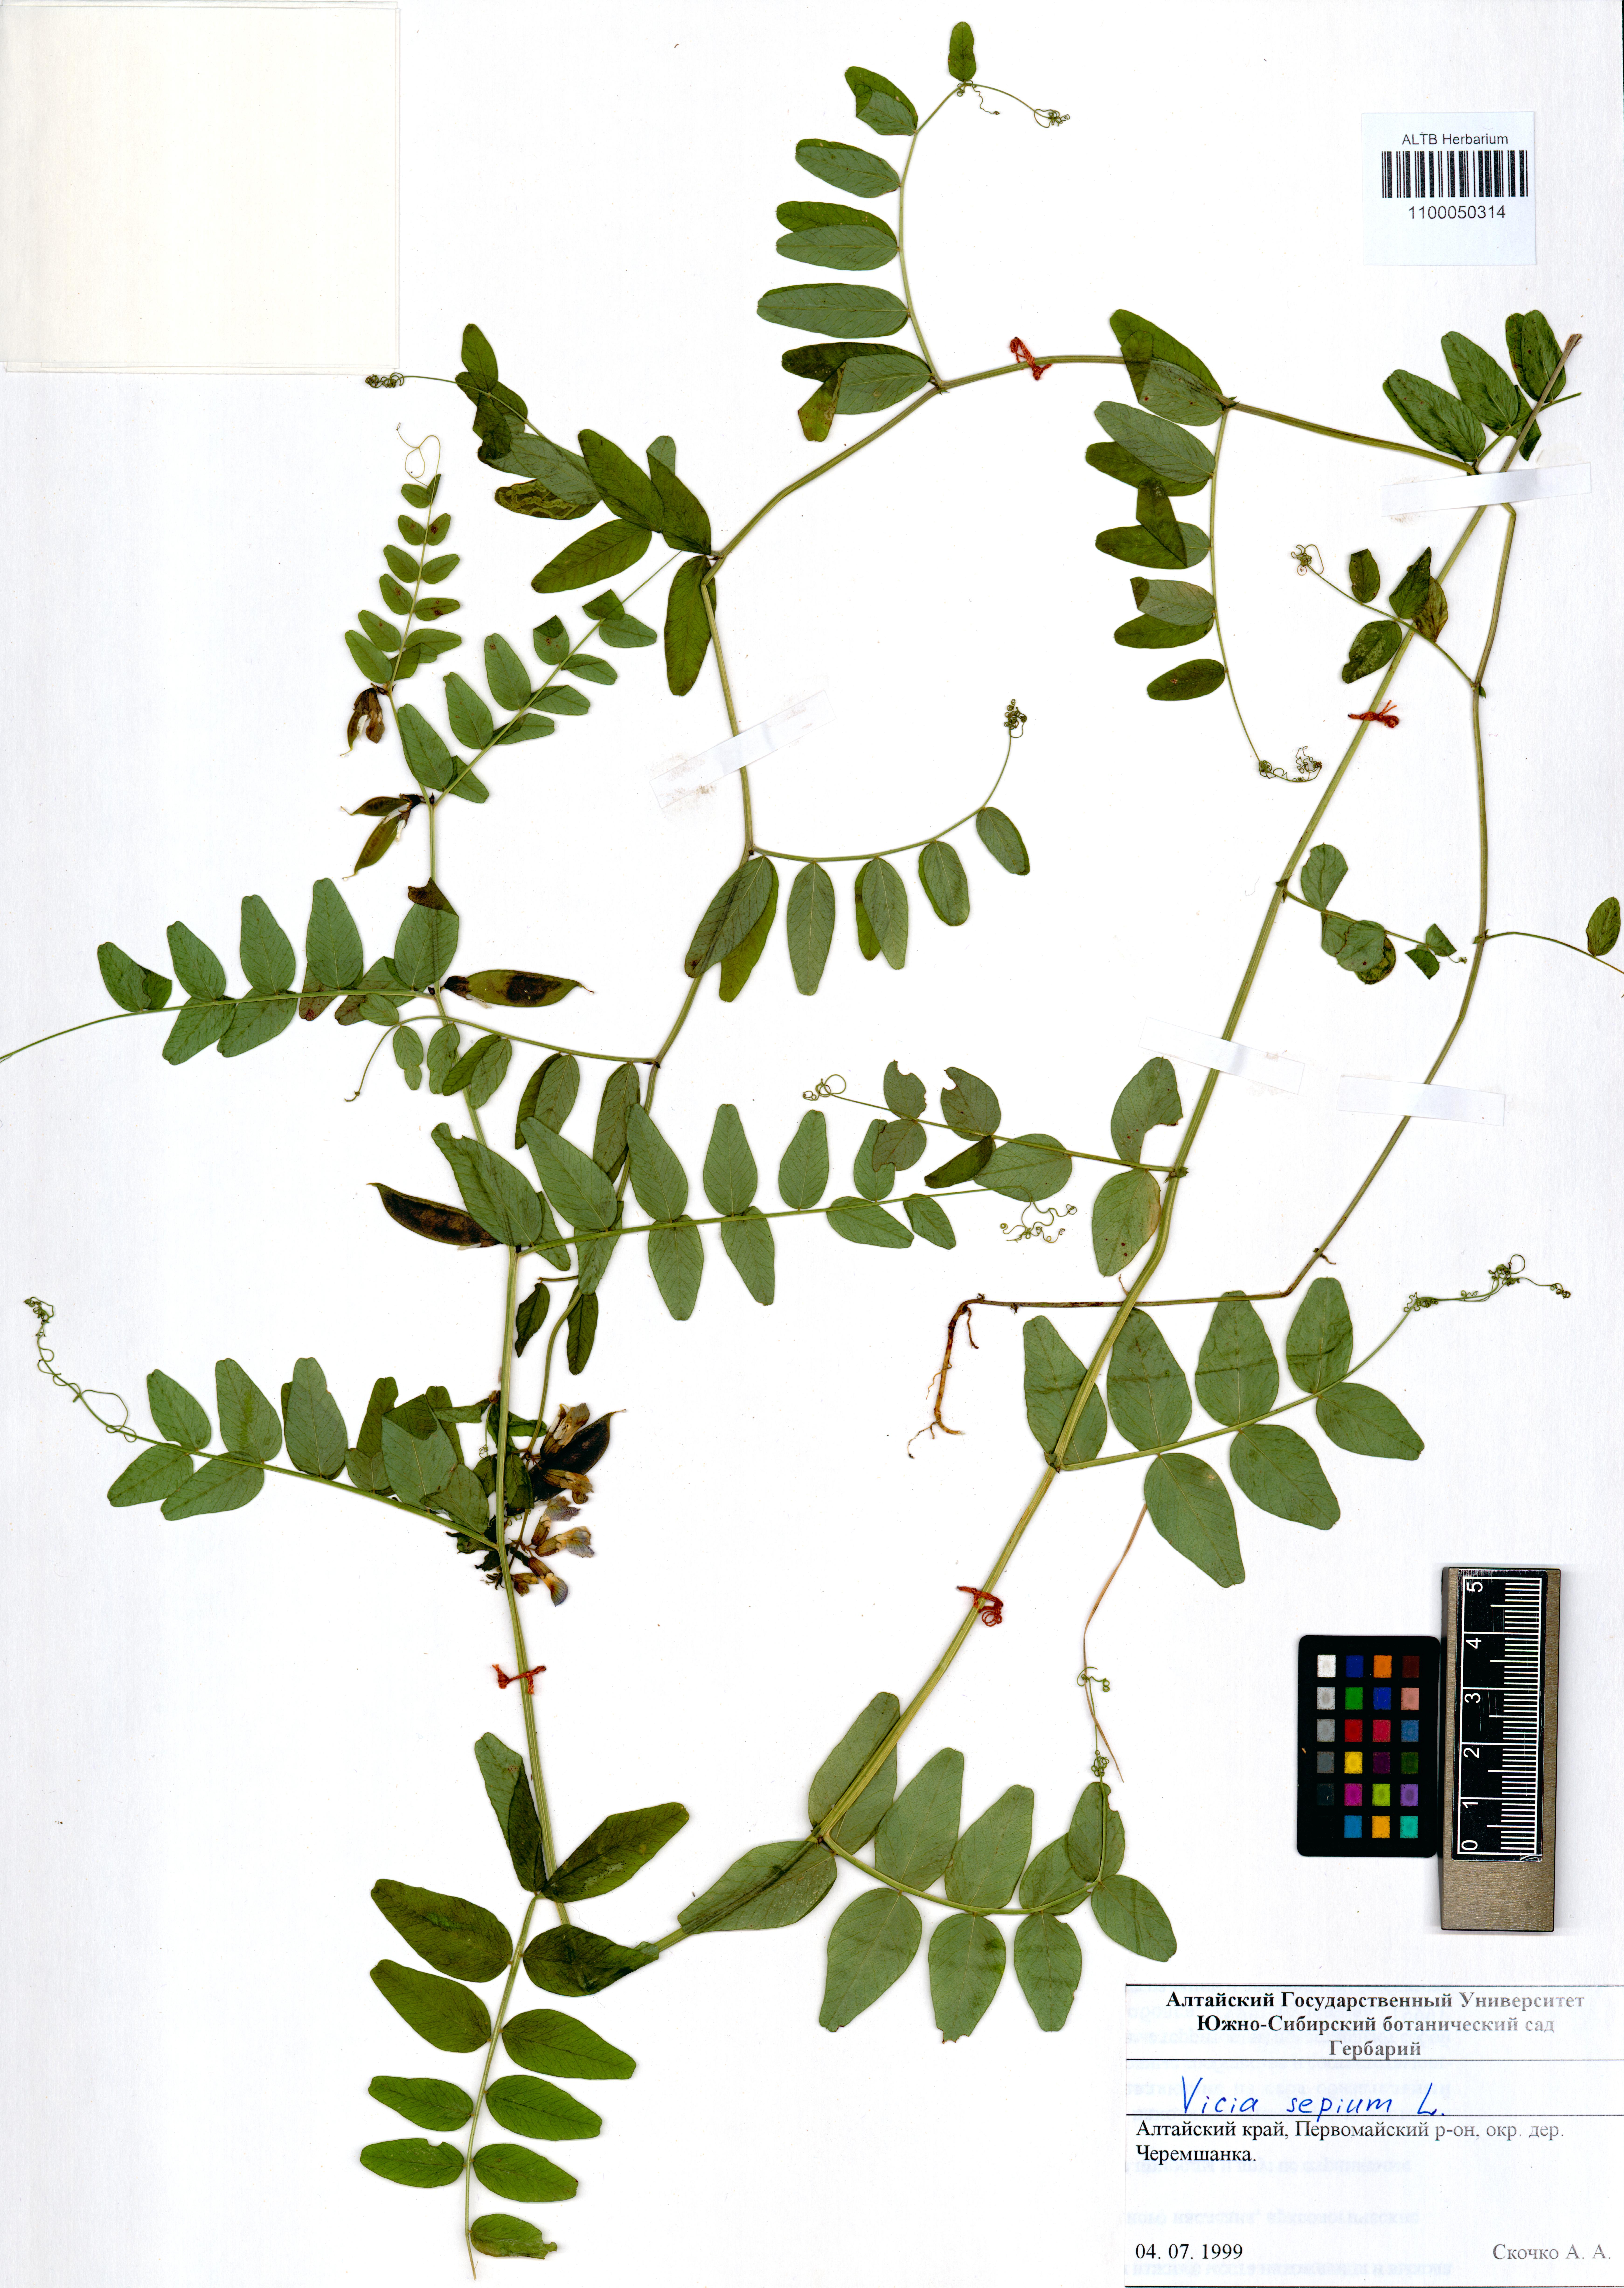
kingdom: Plantae
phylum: Tracheophyta
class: Magnoliopsida
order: Fabales
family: Fabaceae
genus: Vicia
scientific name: Vicia sepium
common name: Bush vetch
